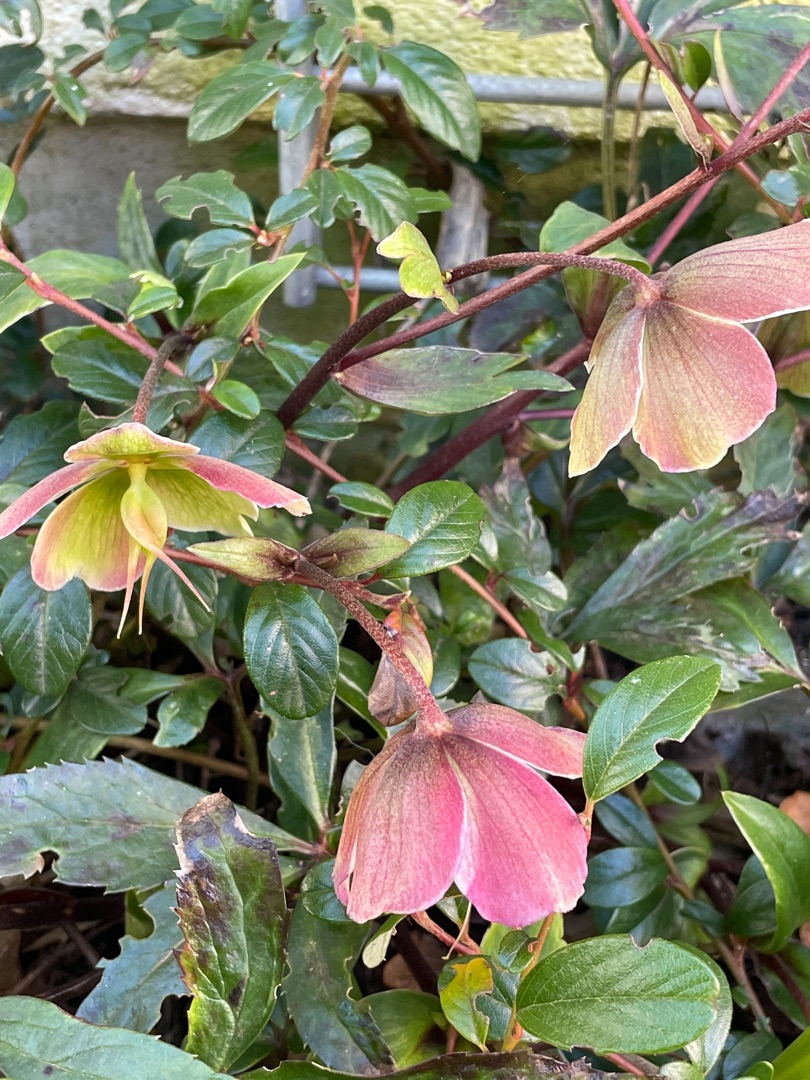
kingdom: Plantae
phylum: Tracheophyta
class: Magnoliopsida
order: Ranunculales
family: Ranunculaceae
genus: Helleborus
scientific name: Helleborus orientalis
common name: Rød julerose
